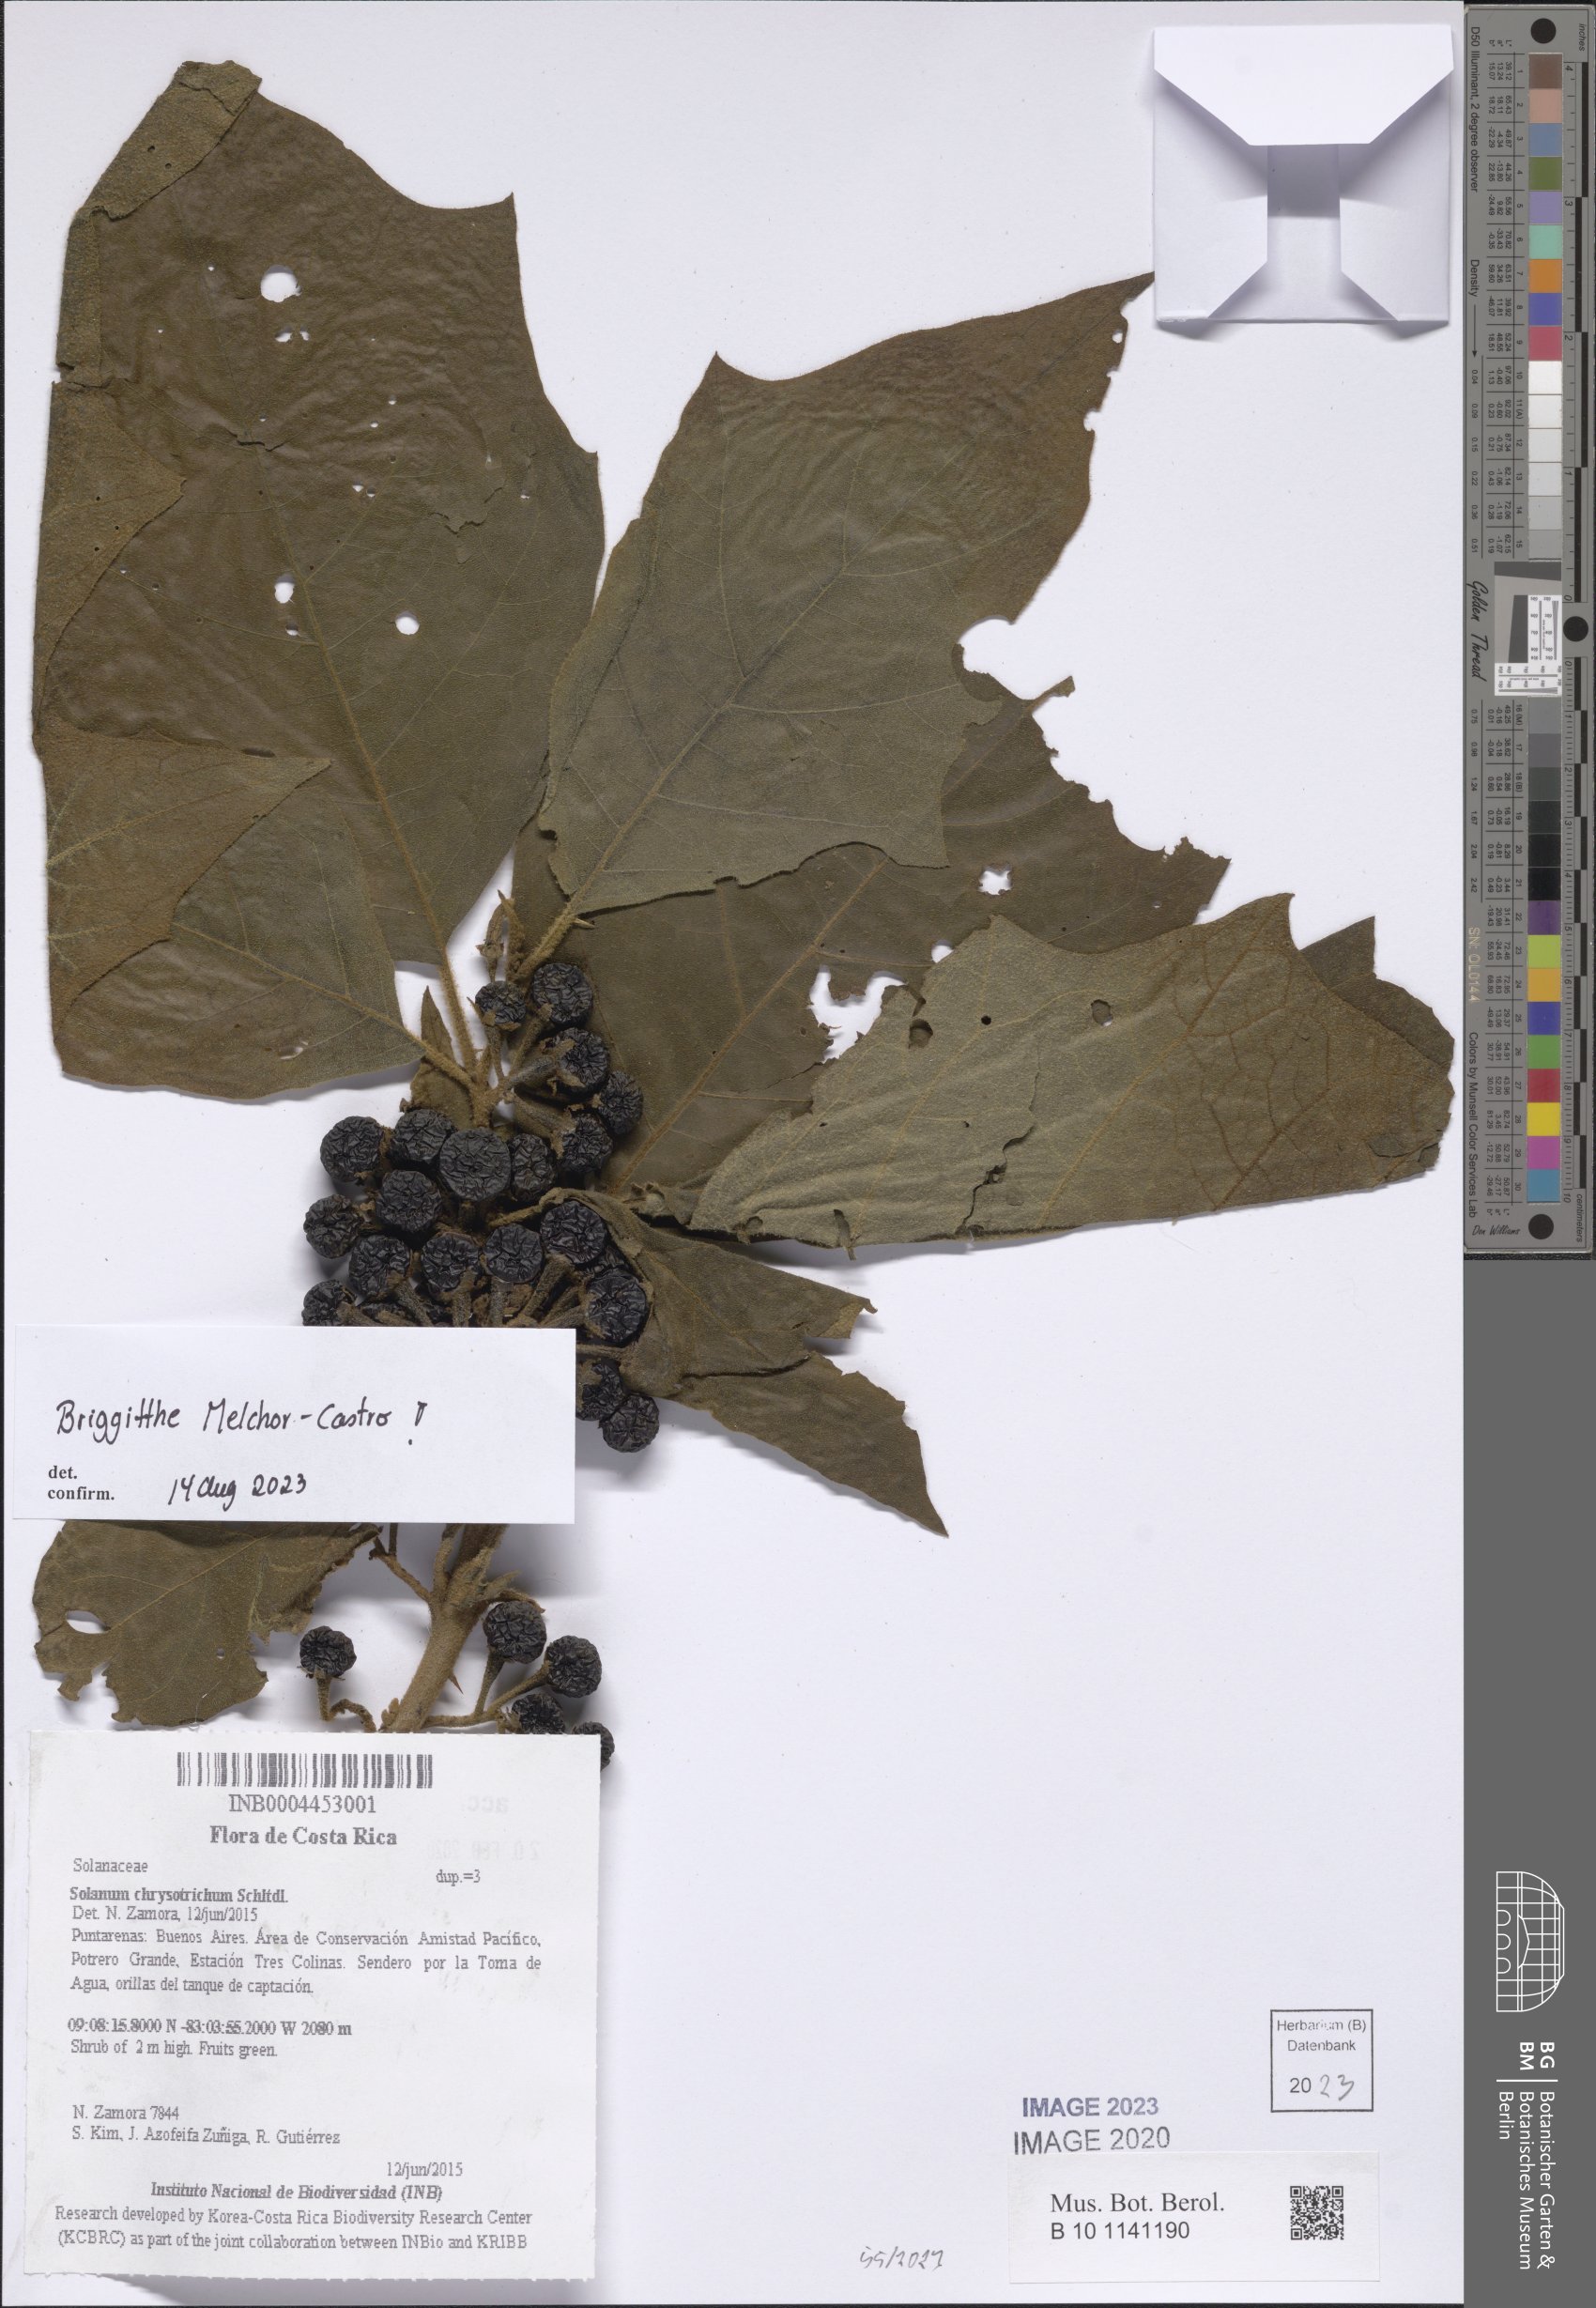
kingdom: Plantae
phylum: Tracheophyta
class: Magnoliopsida
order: Solanales
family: Solanaceae
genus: Solanum
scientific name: Solanum chrysotrichum
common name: Nightshade
